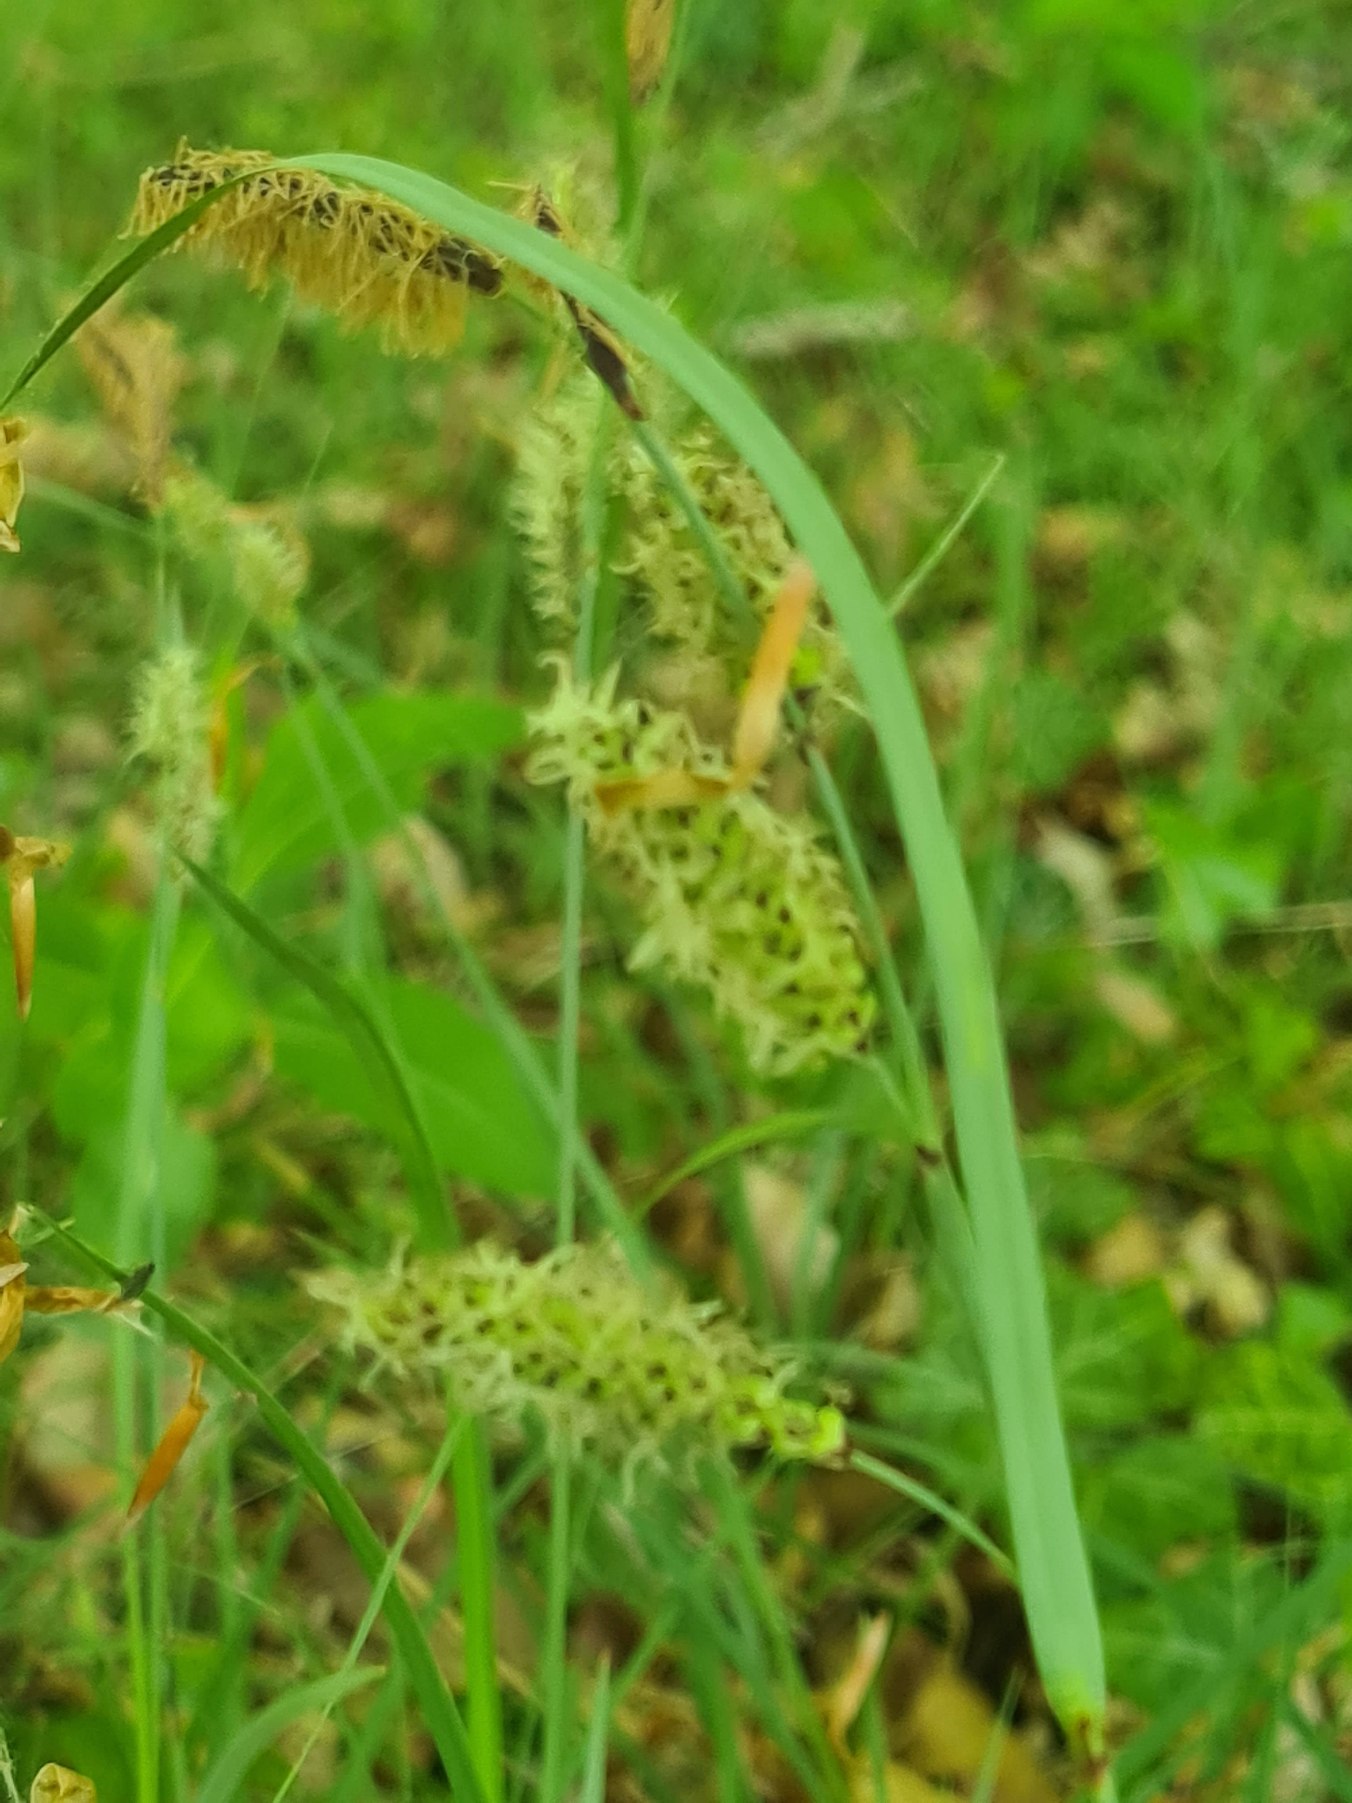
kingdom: Plantae
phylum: Tracheophyta
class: Liliopsida
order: Poales
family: Cyperaceae
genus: Carex
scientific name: Carex flacca
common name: Blågrøn star
